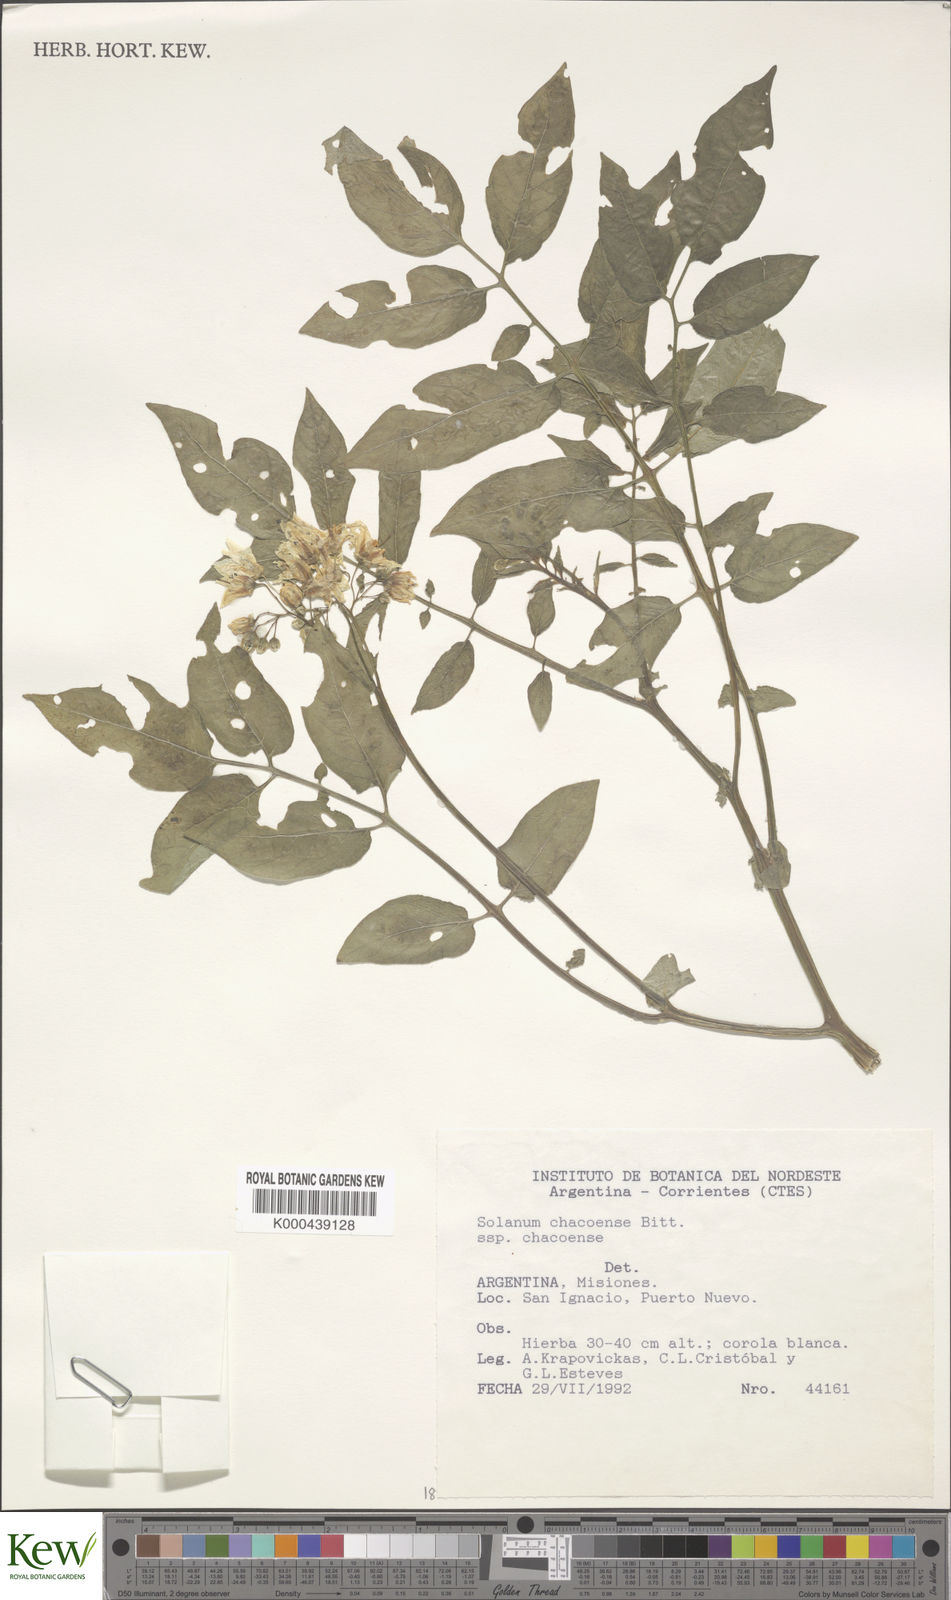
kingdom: Plantae
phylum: Tracheophyta
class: Magnoliopsida
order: Solanales
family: Solanaceae
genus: Solanum
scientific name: Solanum chacoense
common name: Chaco potato
